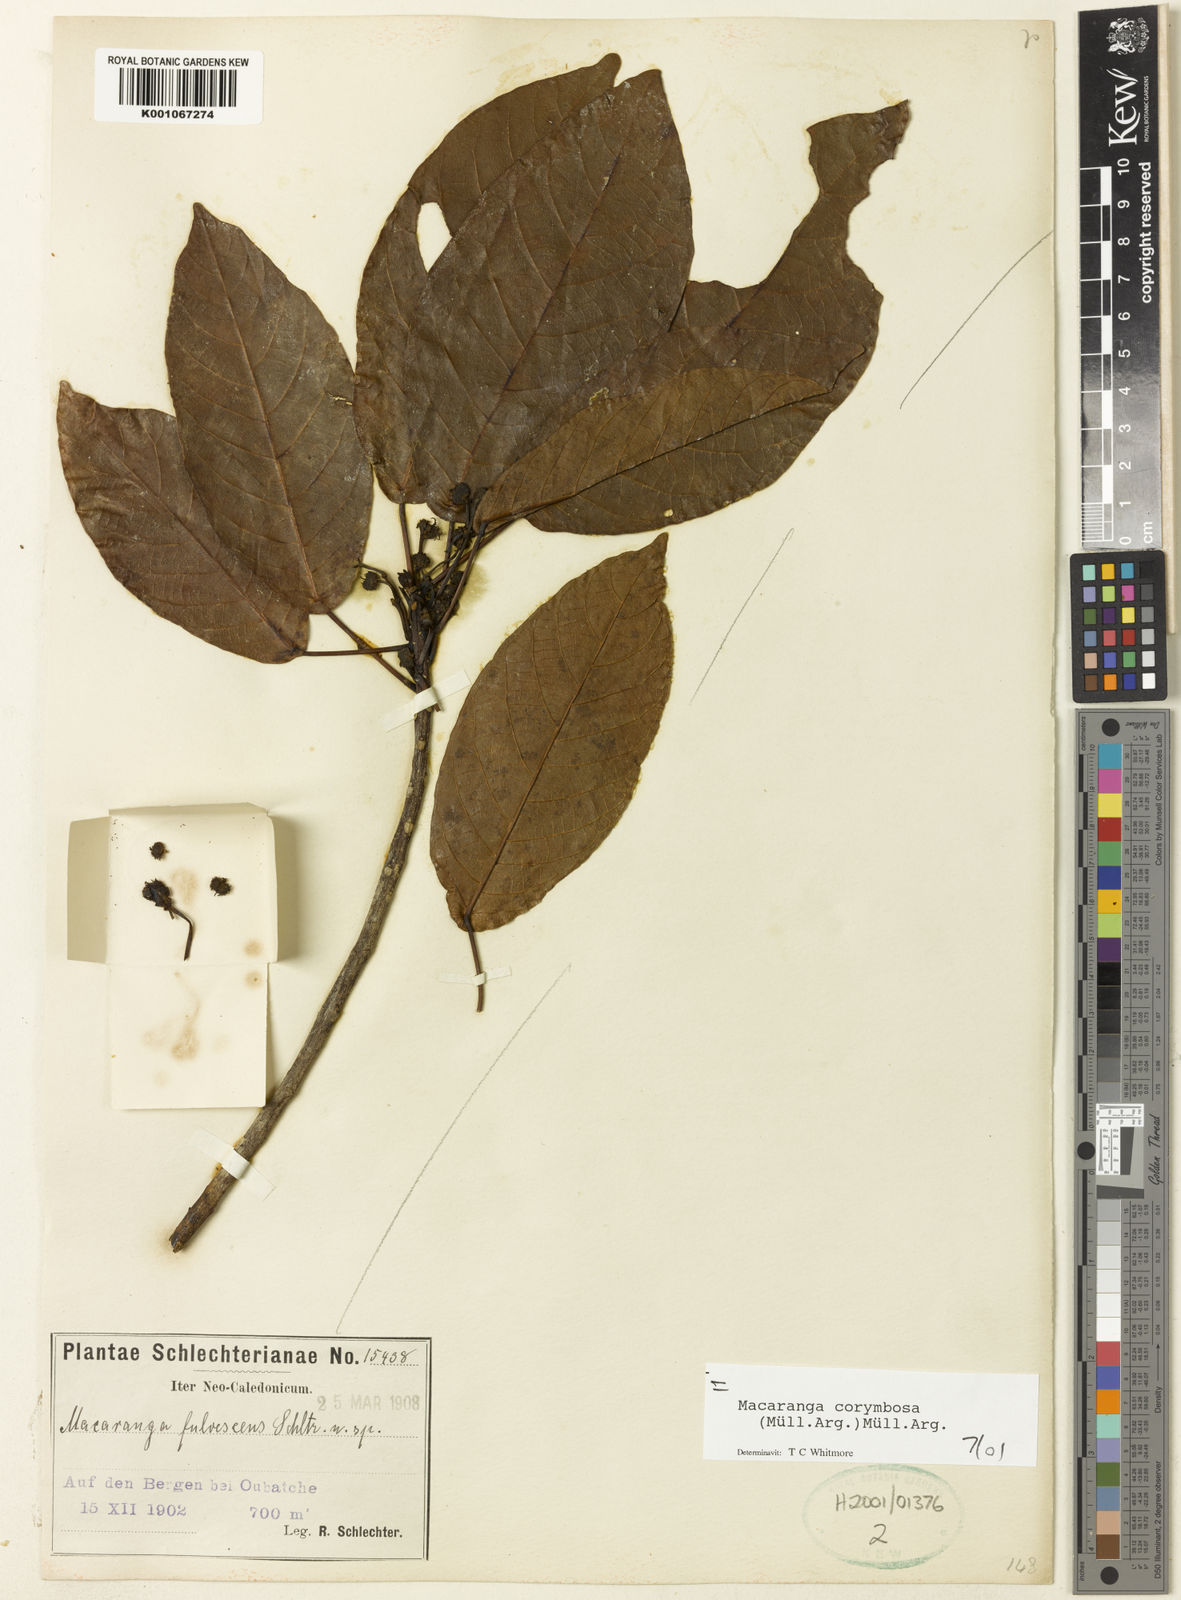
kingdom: Plantae
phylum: Tracheophyta
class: Magnoliopsida
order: Malpighiales
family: Euphorbiaceae
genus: Macaranga
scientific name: Macaranga
